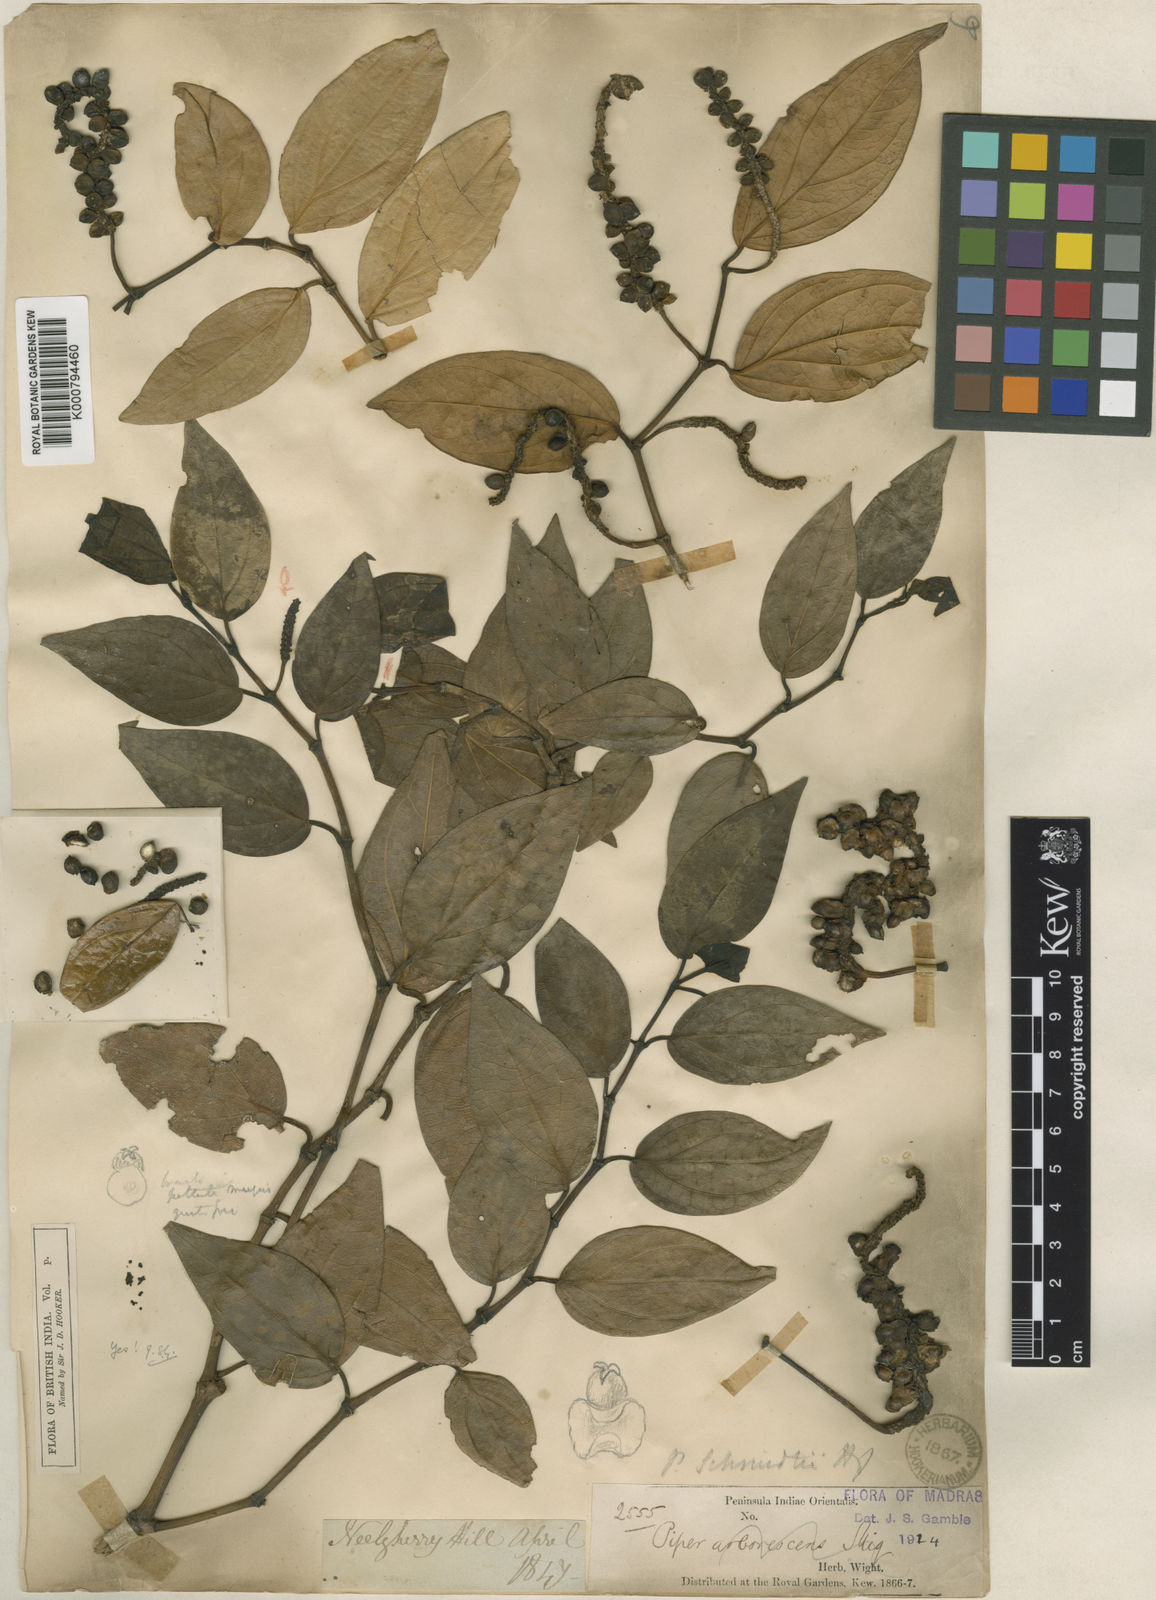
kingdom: Plantae
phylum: Tracheophyta
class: Magnoliopsida
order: Piperales
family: Piperaceae
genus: Piper
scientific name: Piper schmidtii
